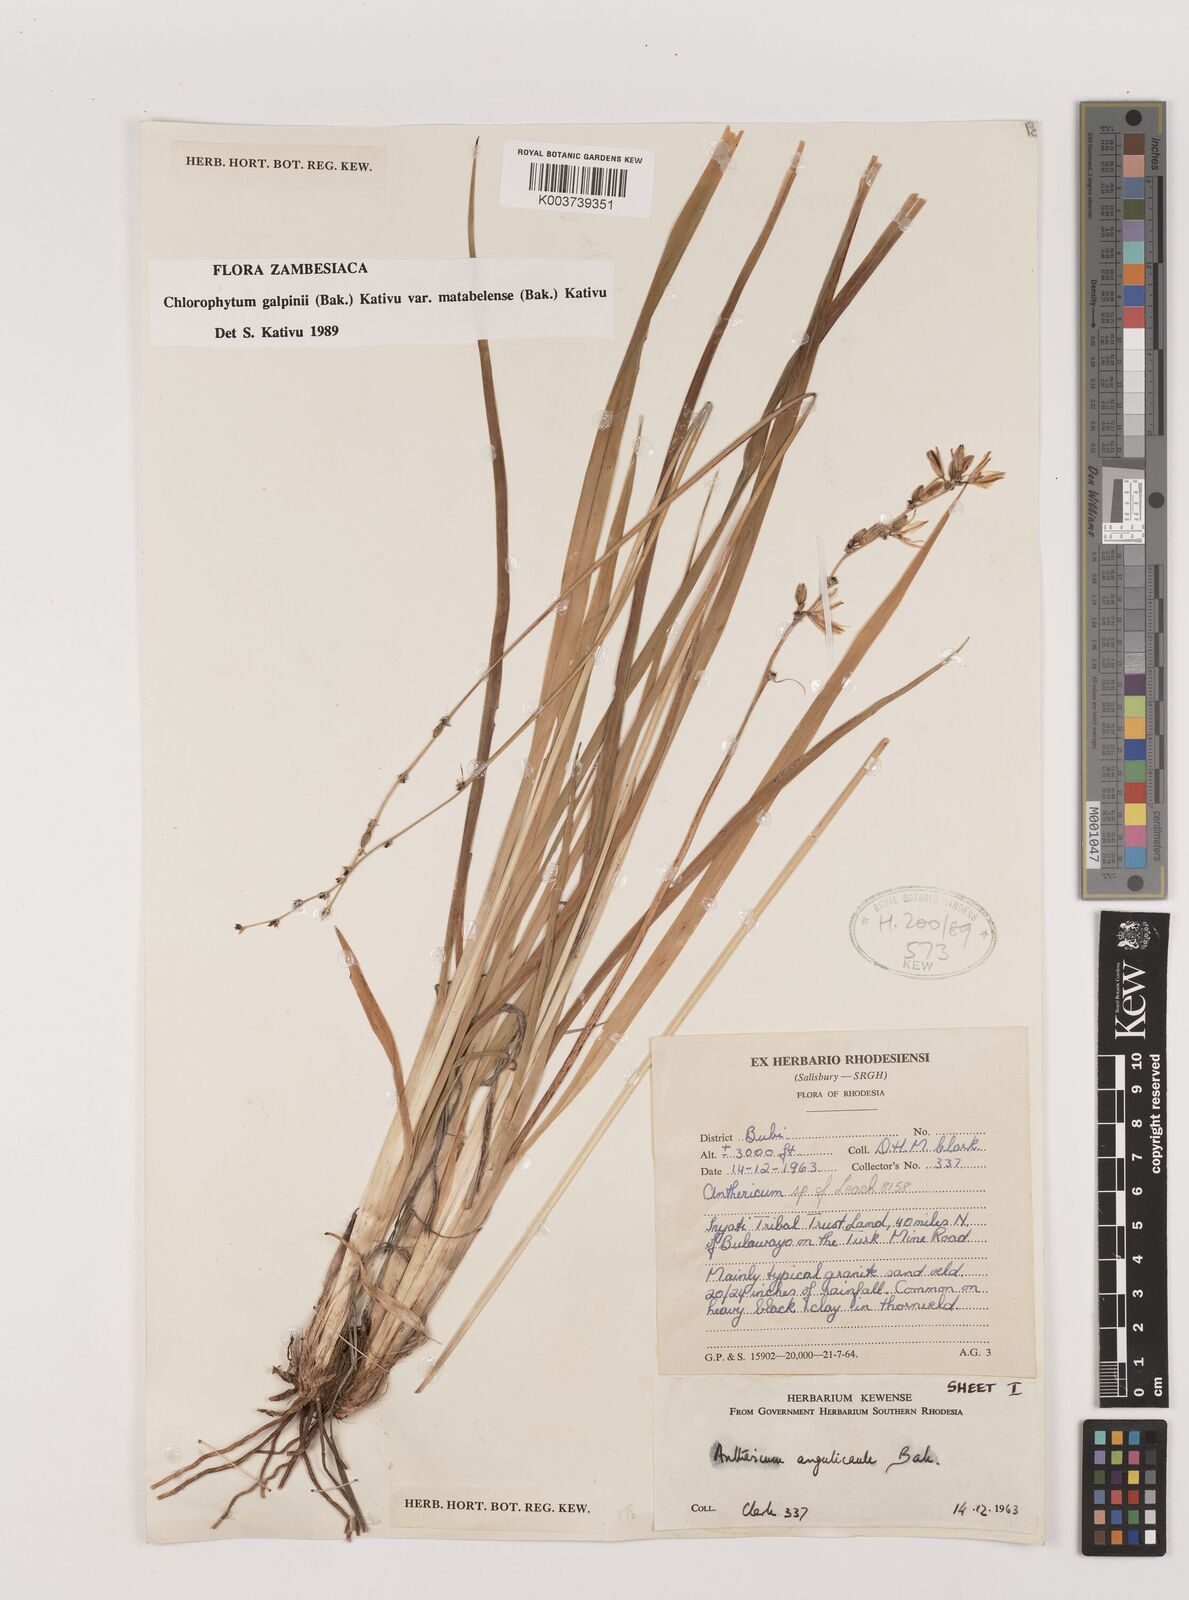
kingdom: Plantae
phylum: Tracheophyta
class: Liliopsida
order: Asparagales
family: Asparagaceae
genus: Chlorophytum
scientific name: Chlorophytum galpinii
